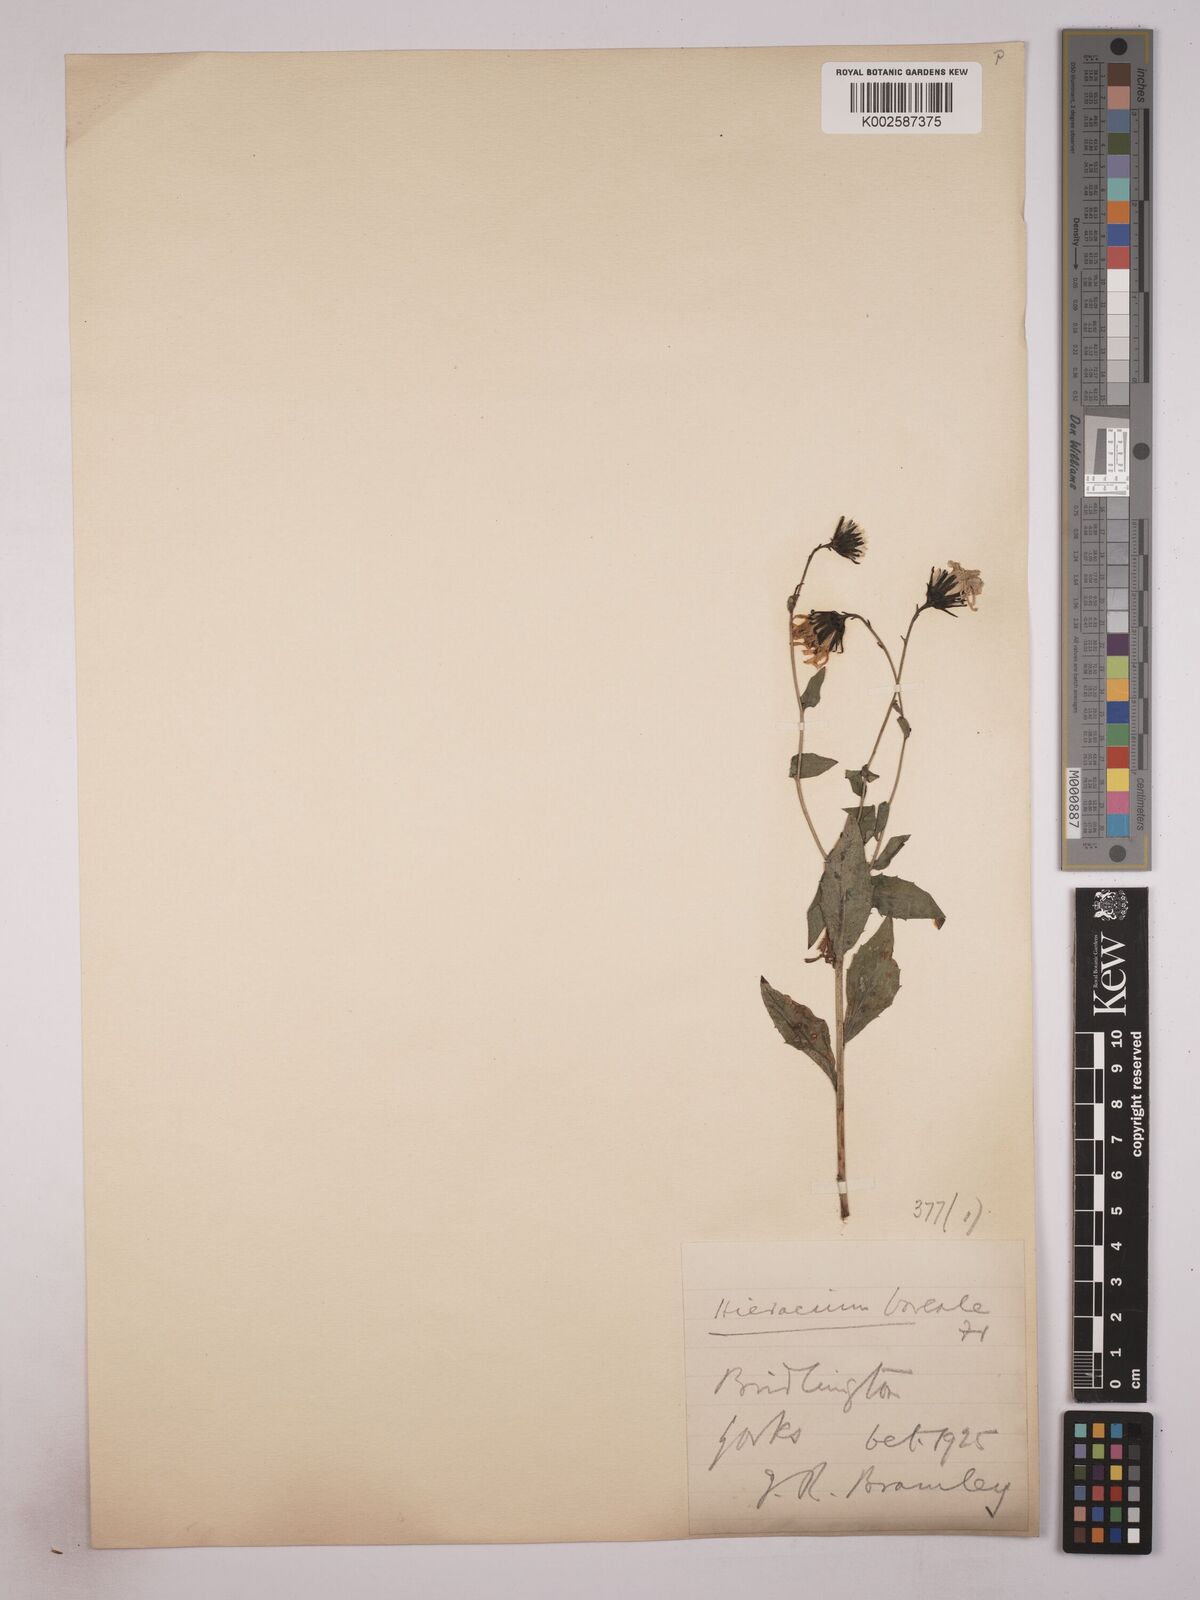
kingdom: Plantae
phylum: Tracheophyta
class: Magnoliopsida
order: Asterales
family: Asteraceae
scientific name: Asteraceae
